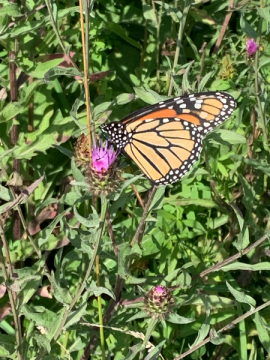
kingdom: Animalia
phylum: Arthropoda
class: Insecta
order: Lepidoptera
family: Nymphalidae
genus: Danaus
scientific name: Danaus plexippus
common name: Monarch
